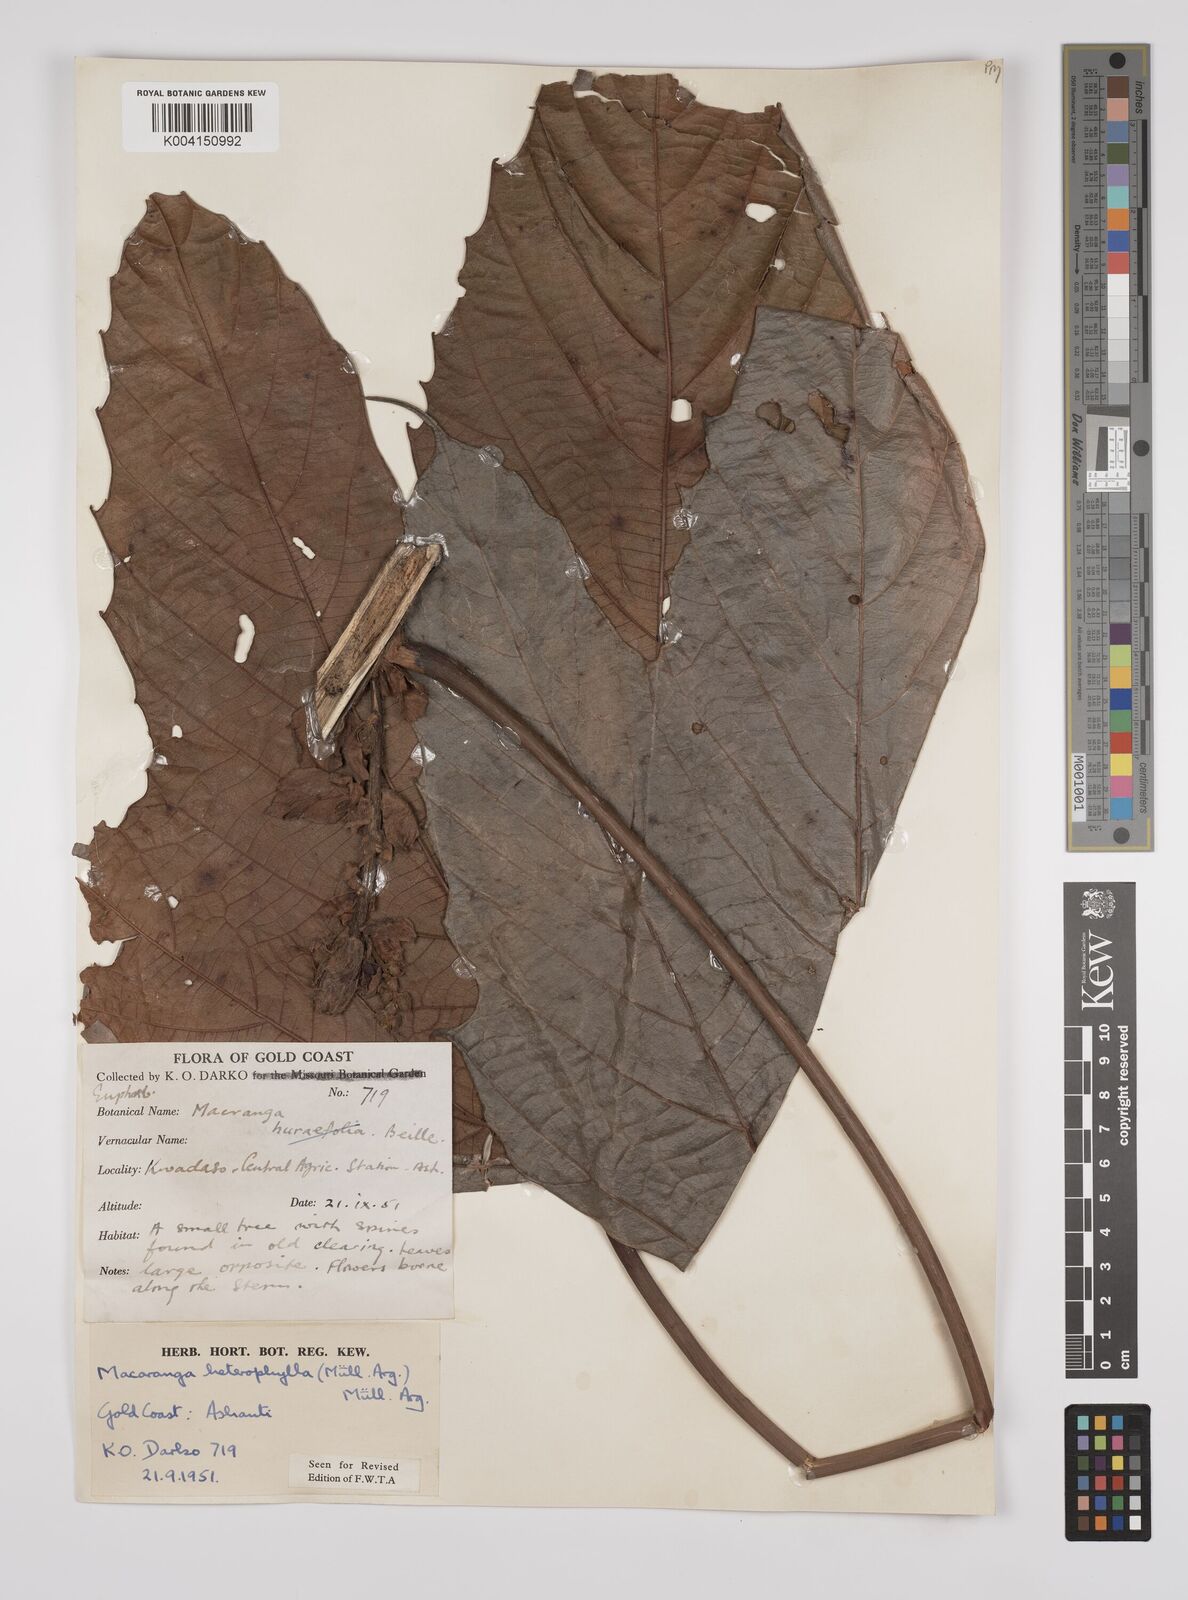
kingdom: Plantae
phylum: Tracheophyta
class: Magnoliopsida
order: Malpighiales
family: Euphorbiaceae
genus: Macaranga
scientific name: Macaranga heterophylla
